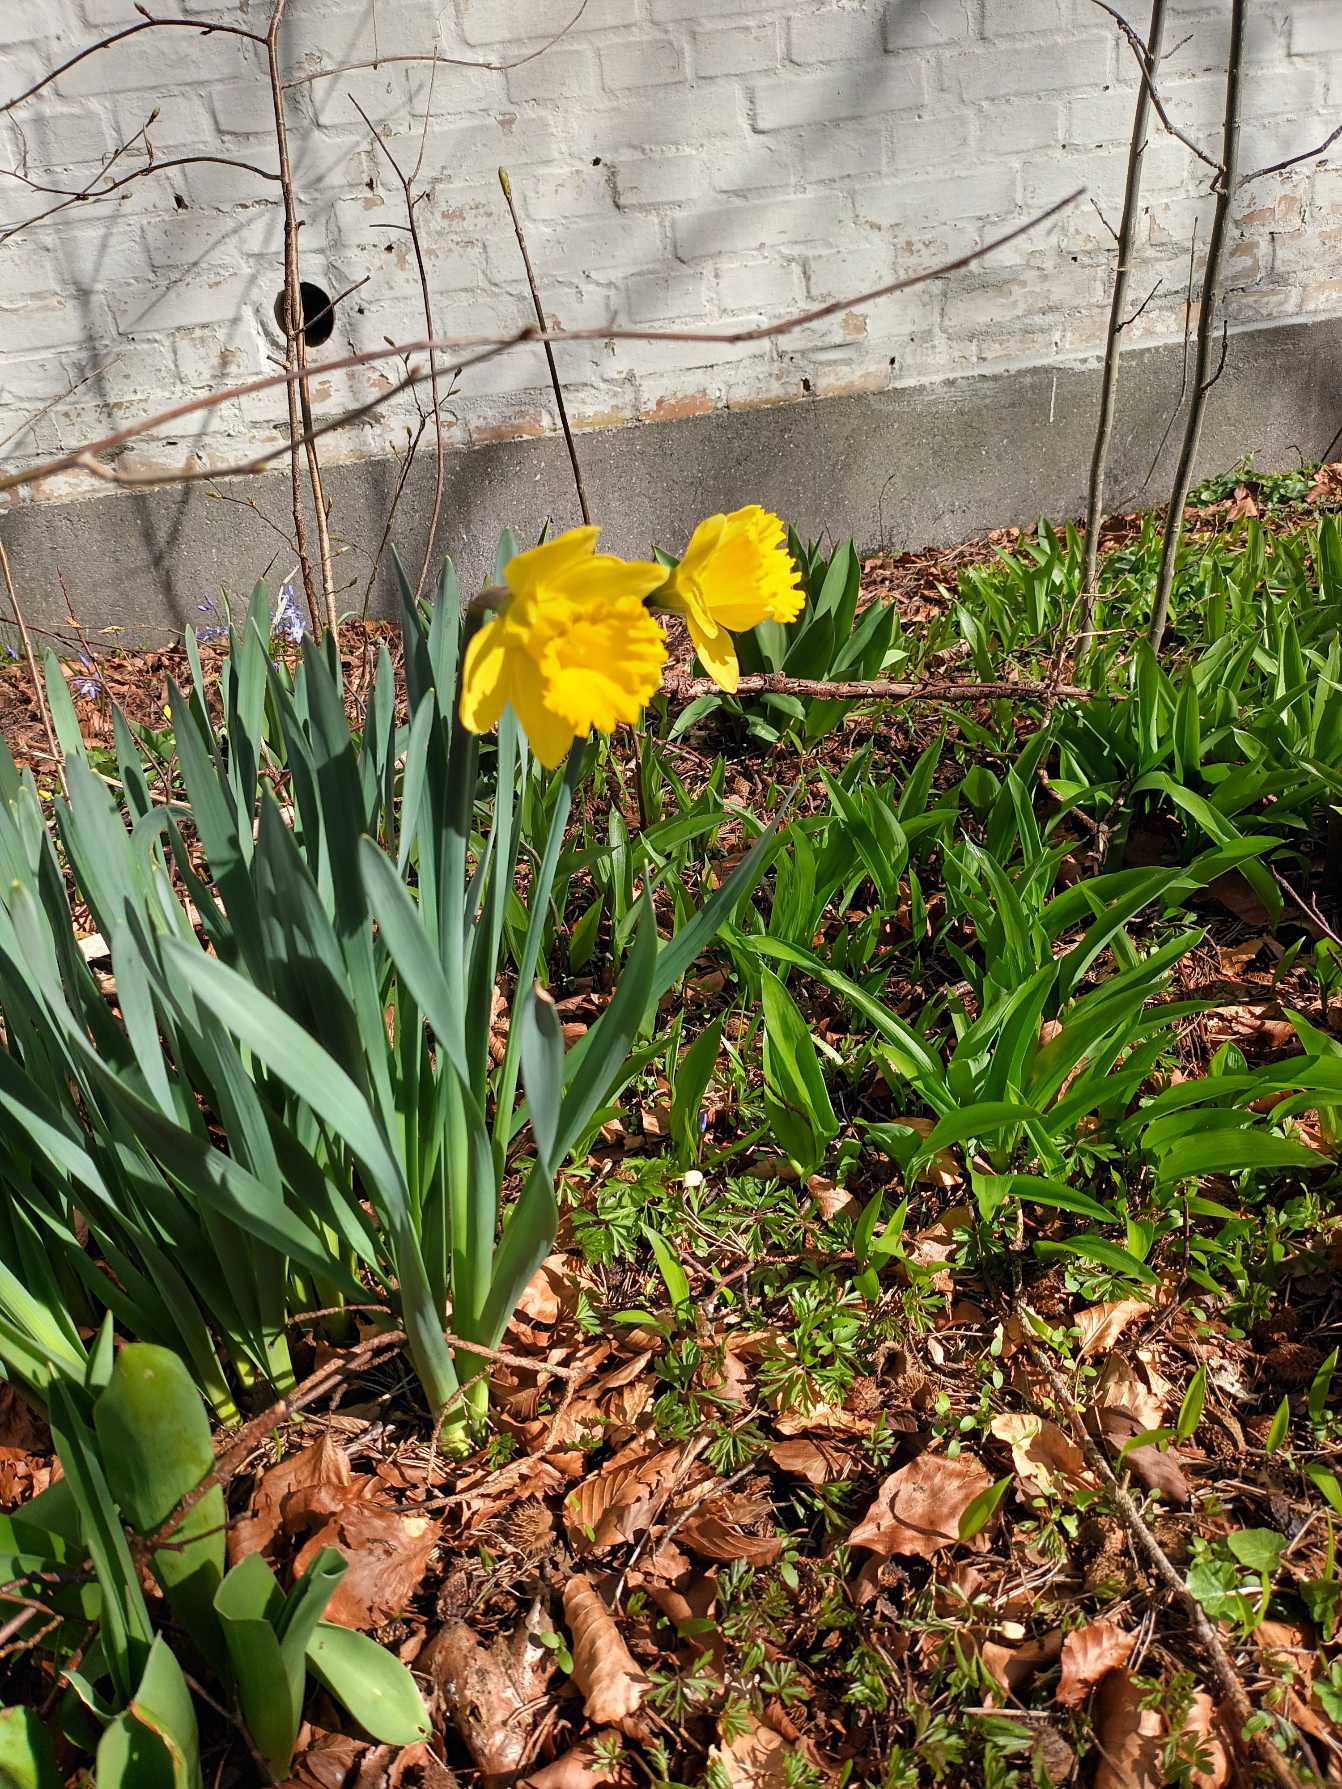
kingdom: Plantae
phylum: Tracheophyta
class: Liliopsida
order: Asparagales
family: Amaryllidaceae
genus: Narcissus
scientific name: Narcissus pseudonarcissus
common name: Påskelilje
